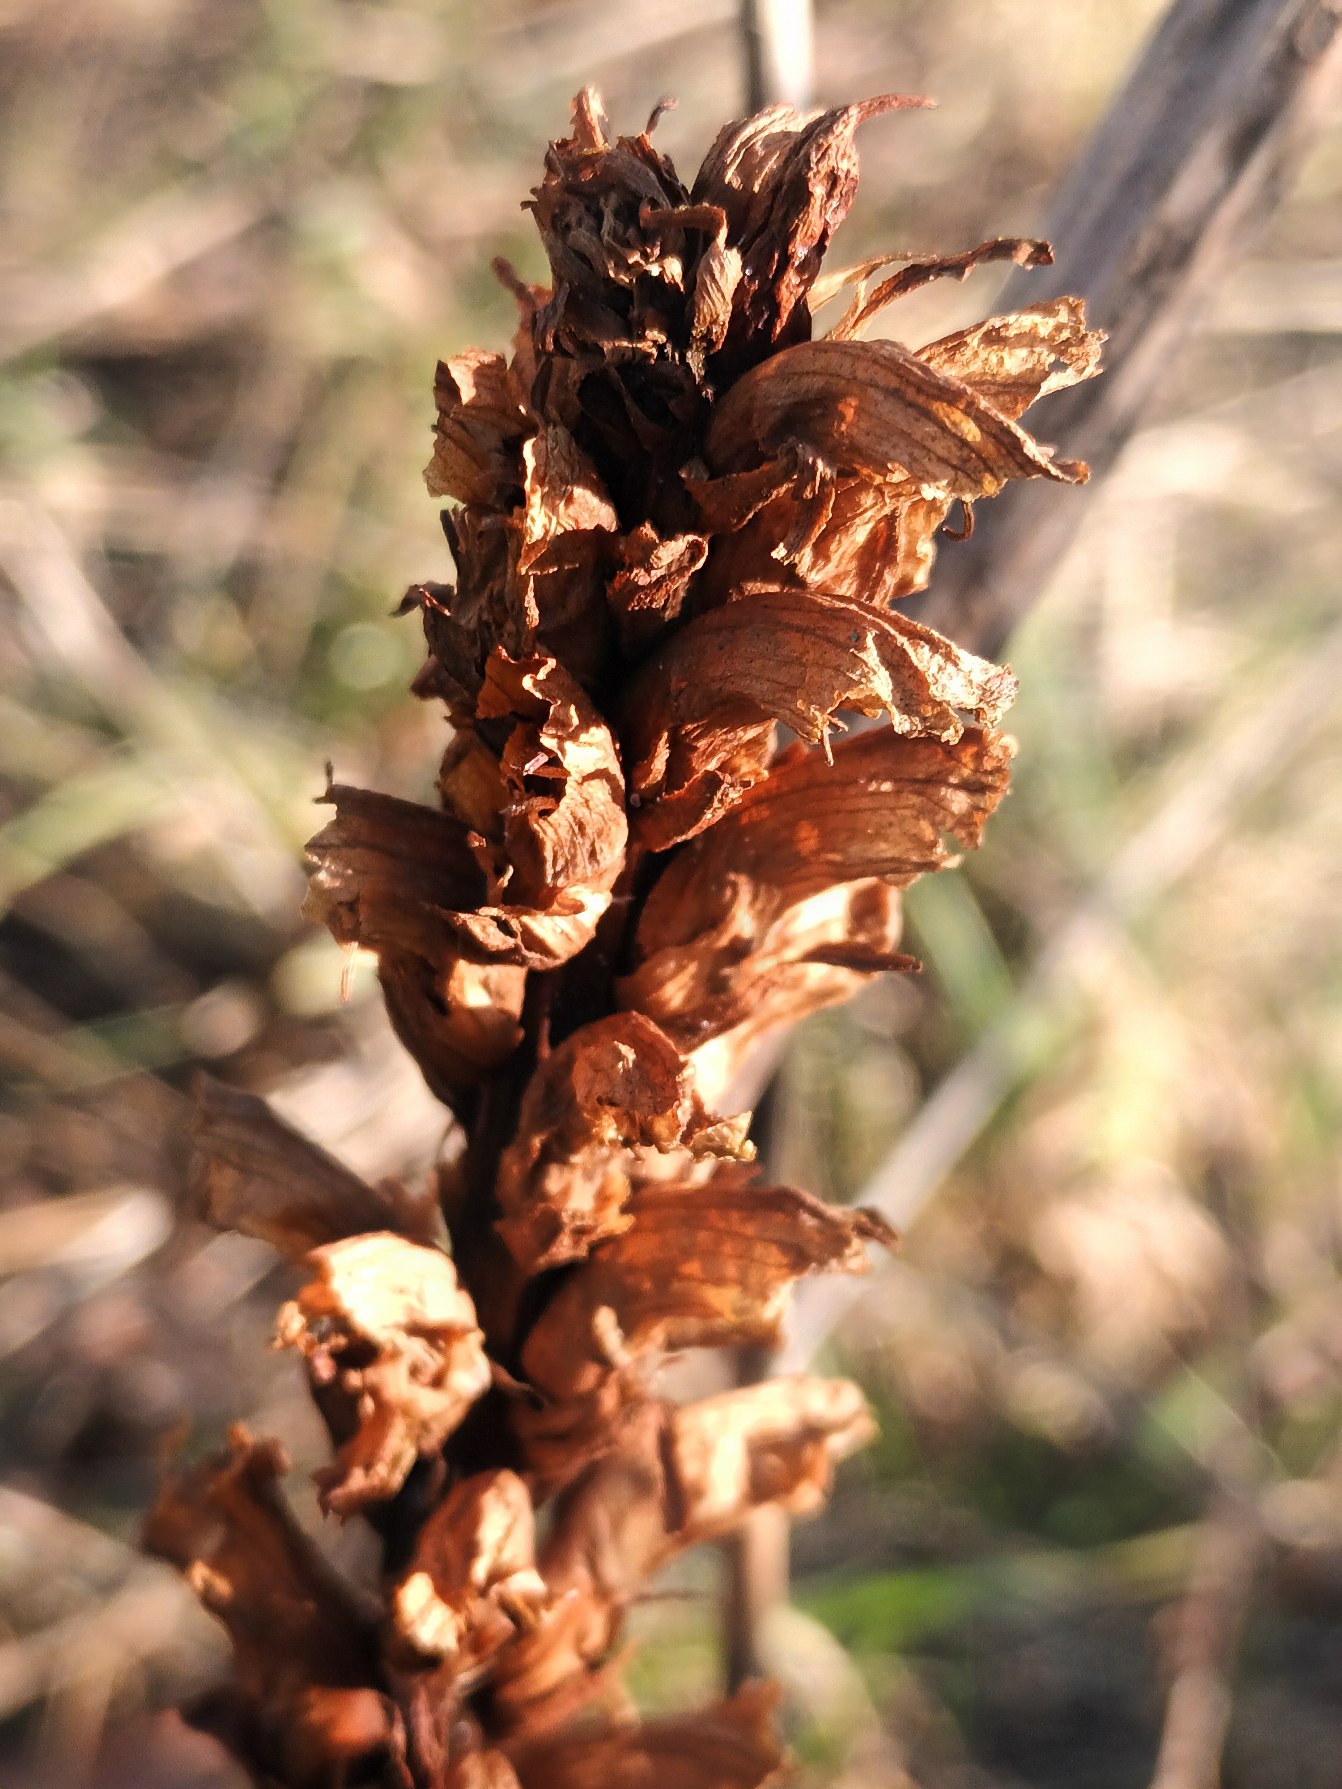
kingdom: Plantae
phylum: Tracheophyta
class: Magnoliopsida
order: Lamiales
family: Orobanchaceae
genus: Orobanche
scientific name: Orobanche elatior
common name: Stor gyvelkvæler
